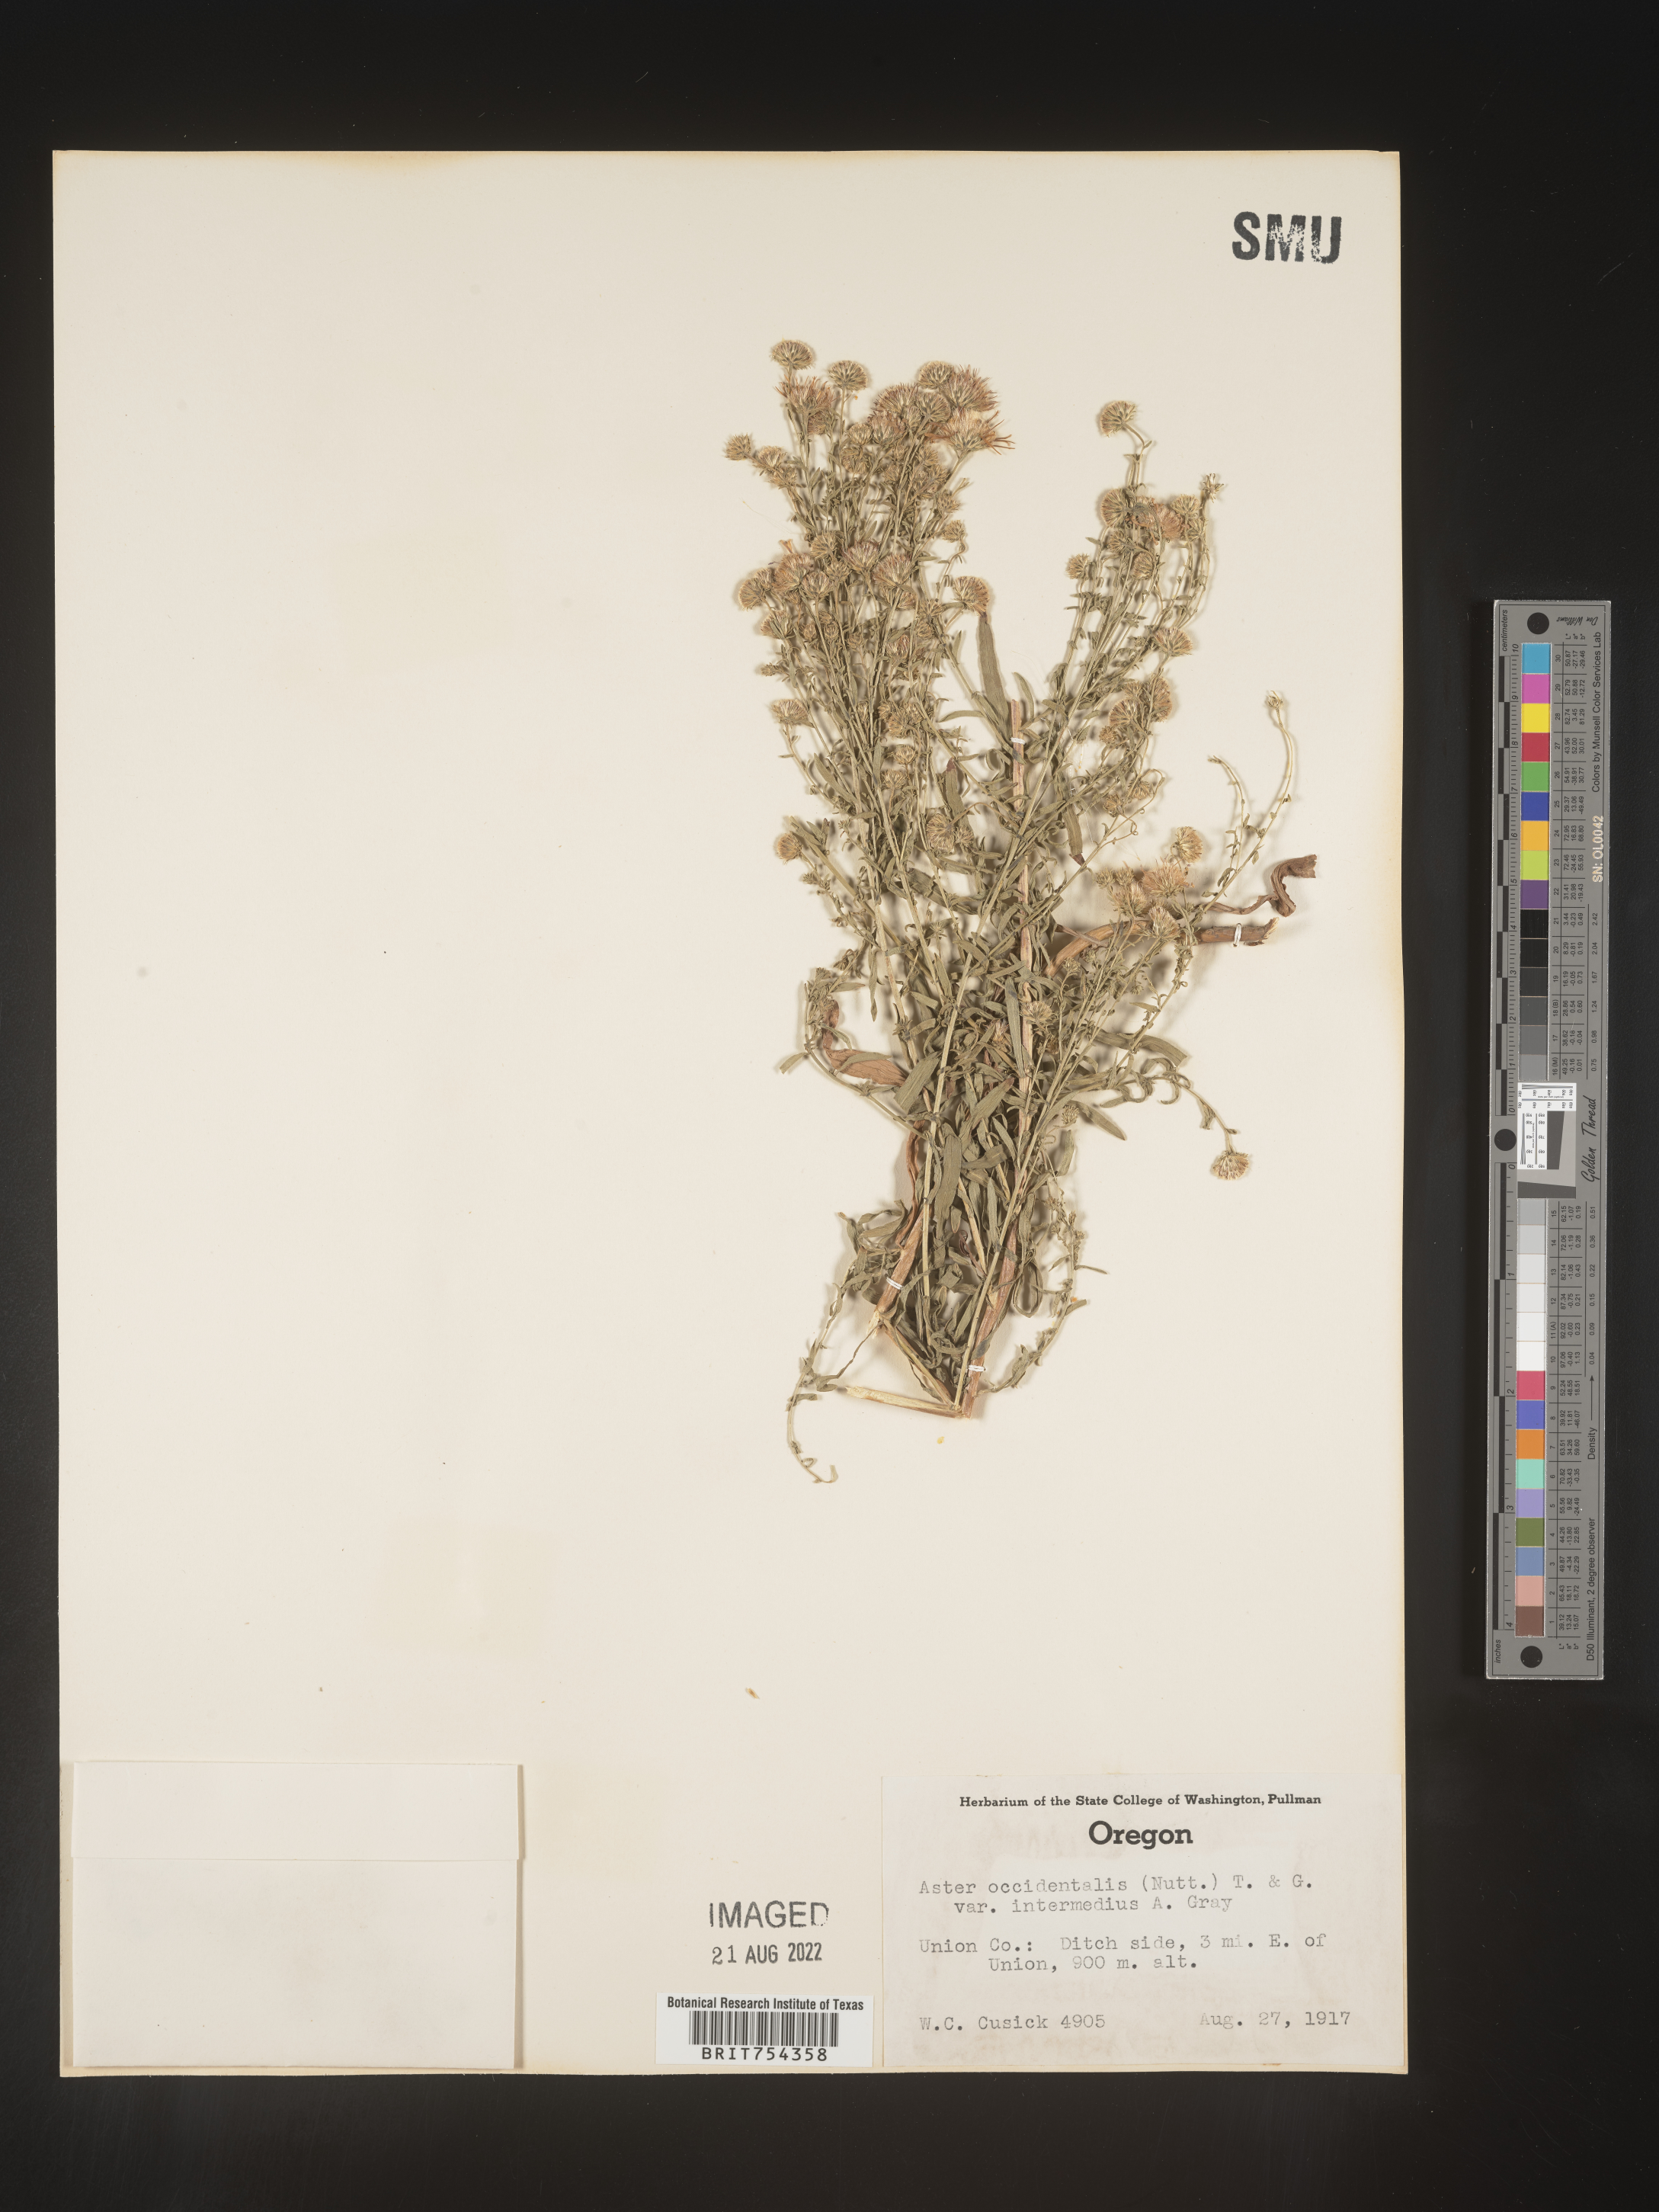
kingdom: Plantae
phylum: Tracheophyta
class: Magnoliopsida
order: Asterales
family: Asteraceae
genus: Symphyotrichum
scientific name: Symphyotrichum spathulatum
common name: Western mountain aster
